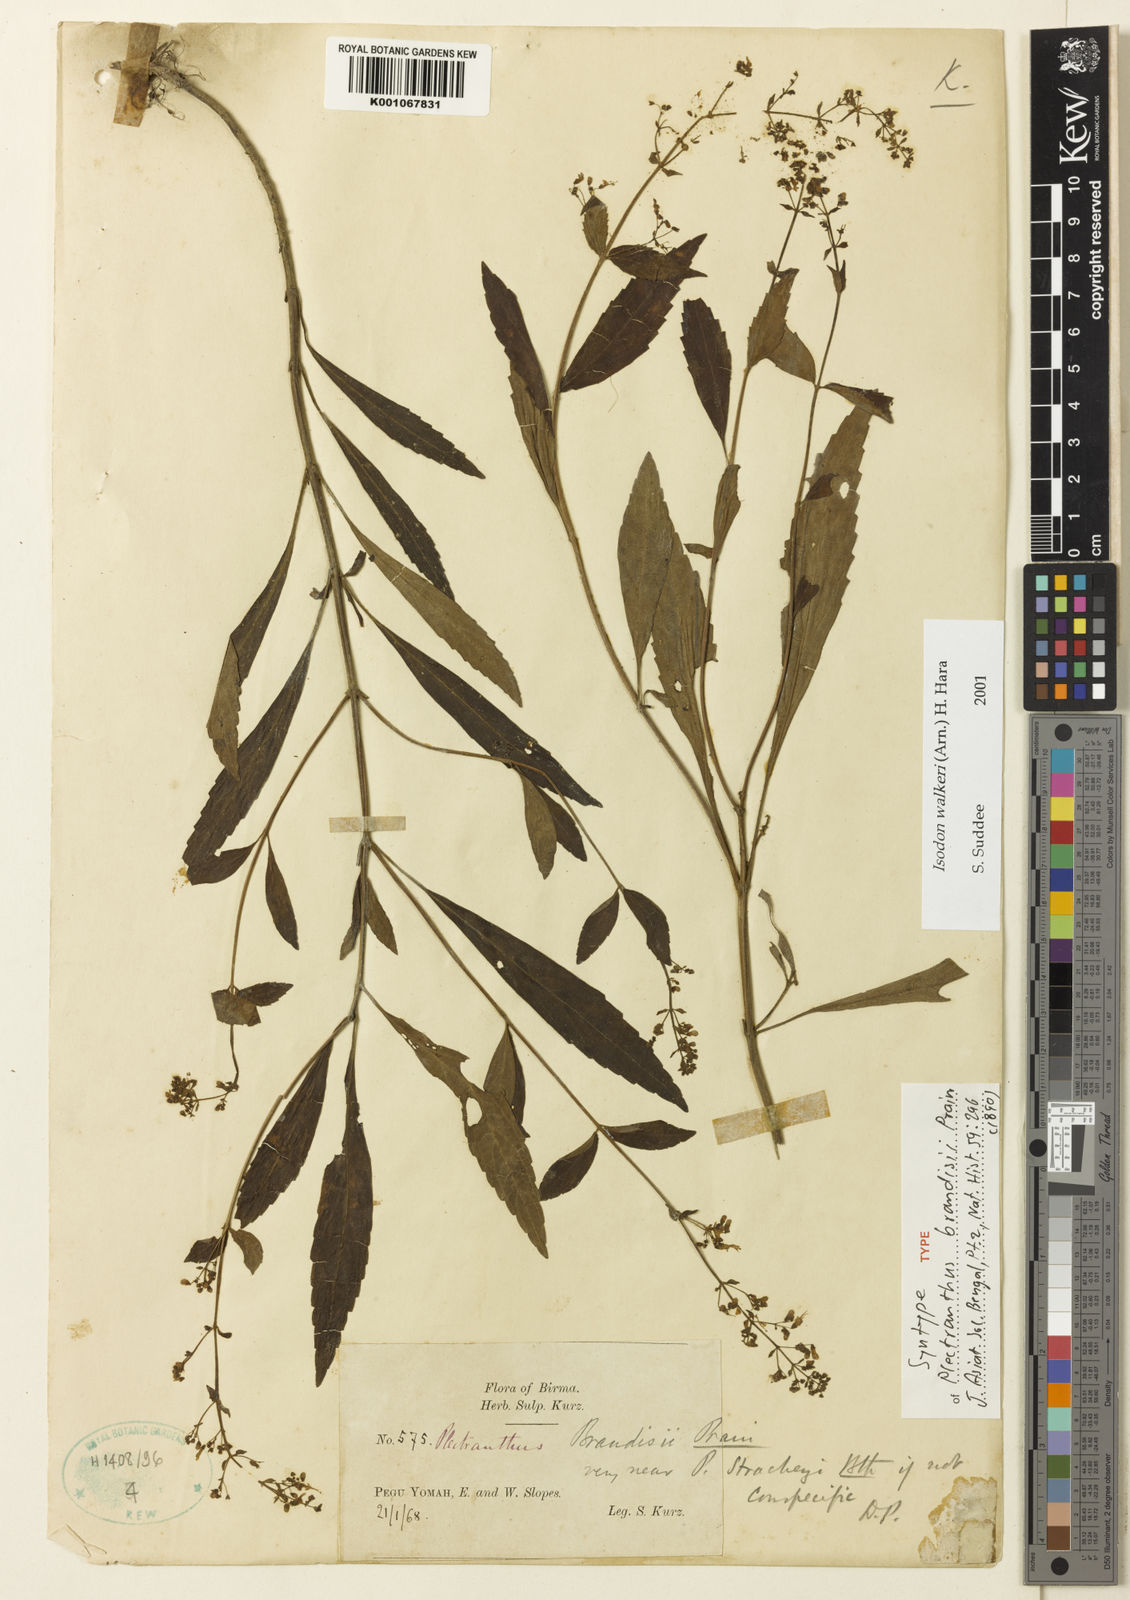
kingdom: Plantae
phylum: Tracheophyta
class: Magnoliopsida
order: Lamiales
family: Lamiaceae
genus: Isodon
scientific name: Isodon walkeri
